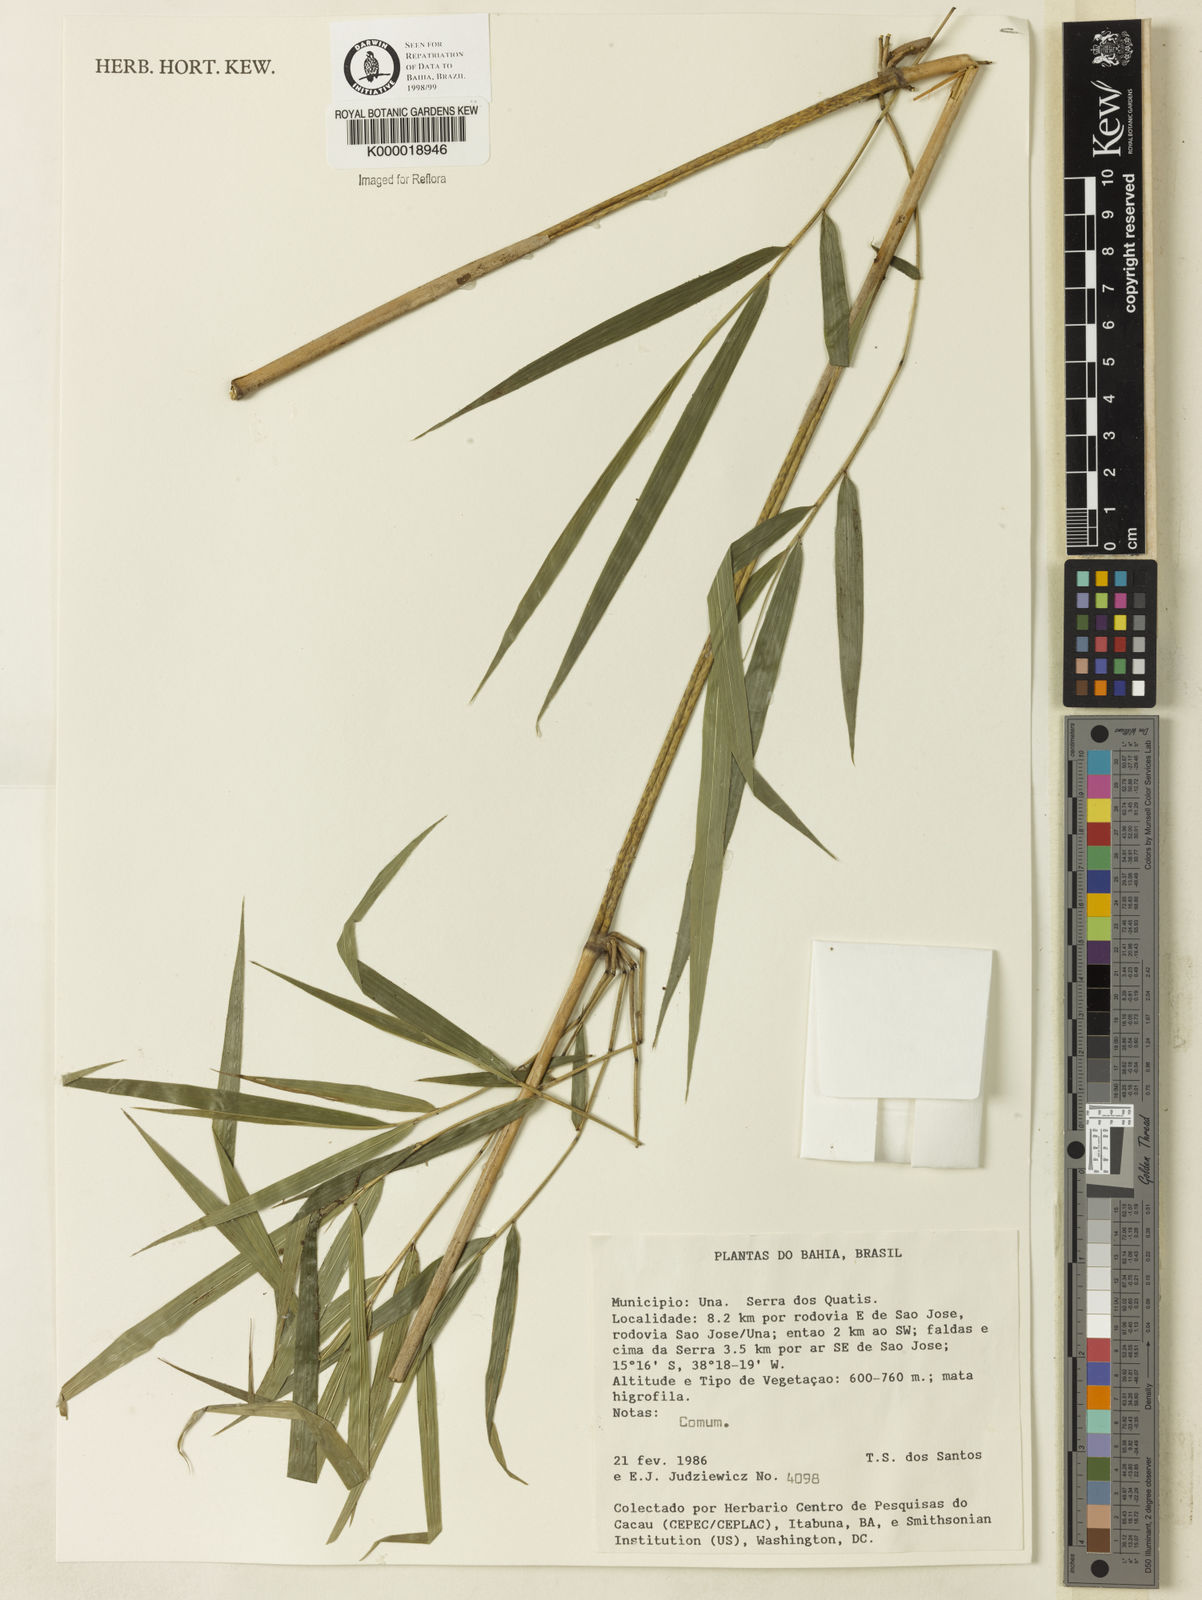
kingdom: Plantae
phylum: Tracheophyta
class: Liliopsida
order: Poales
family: Poaceae
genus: Merostachys
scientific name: Merostachys
